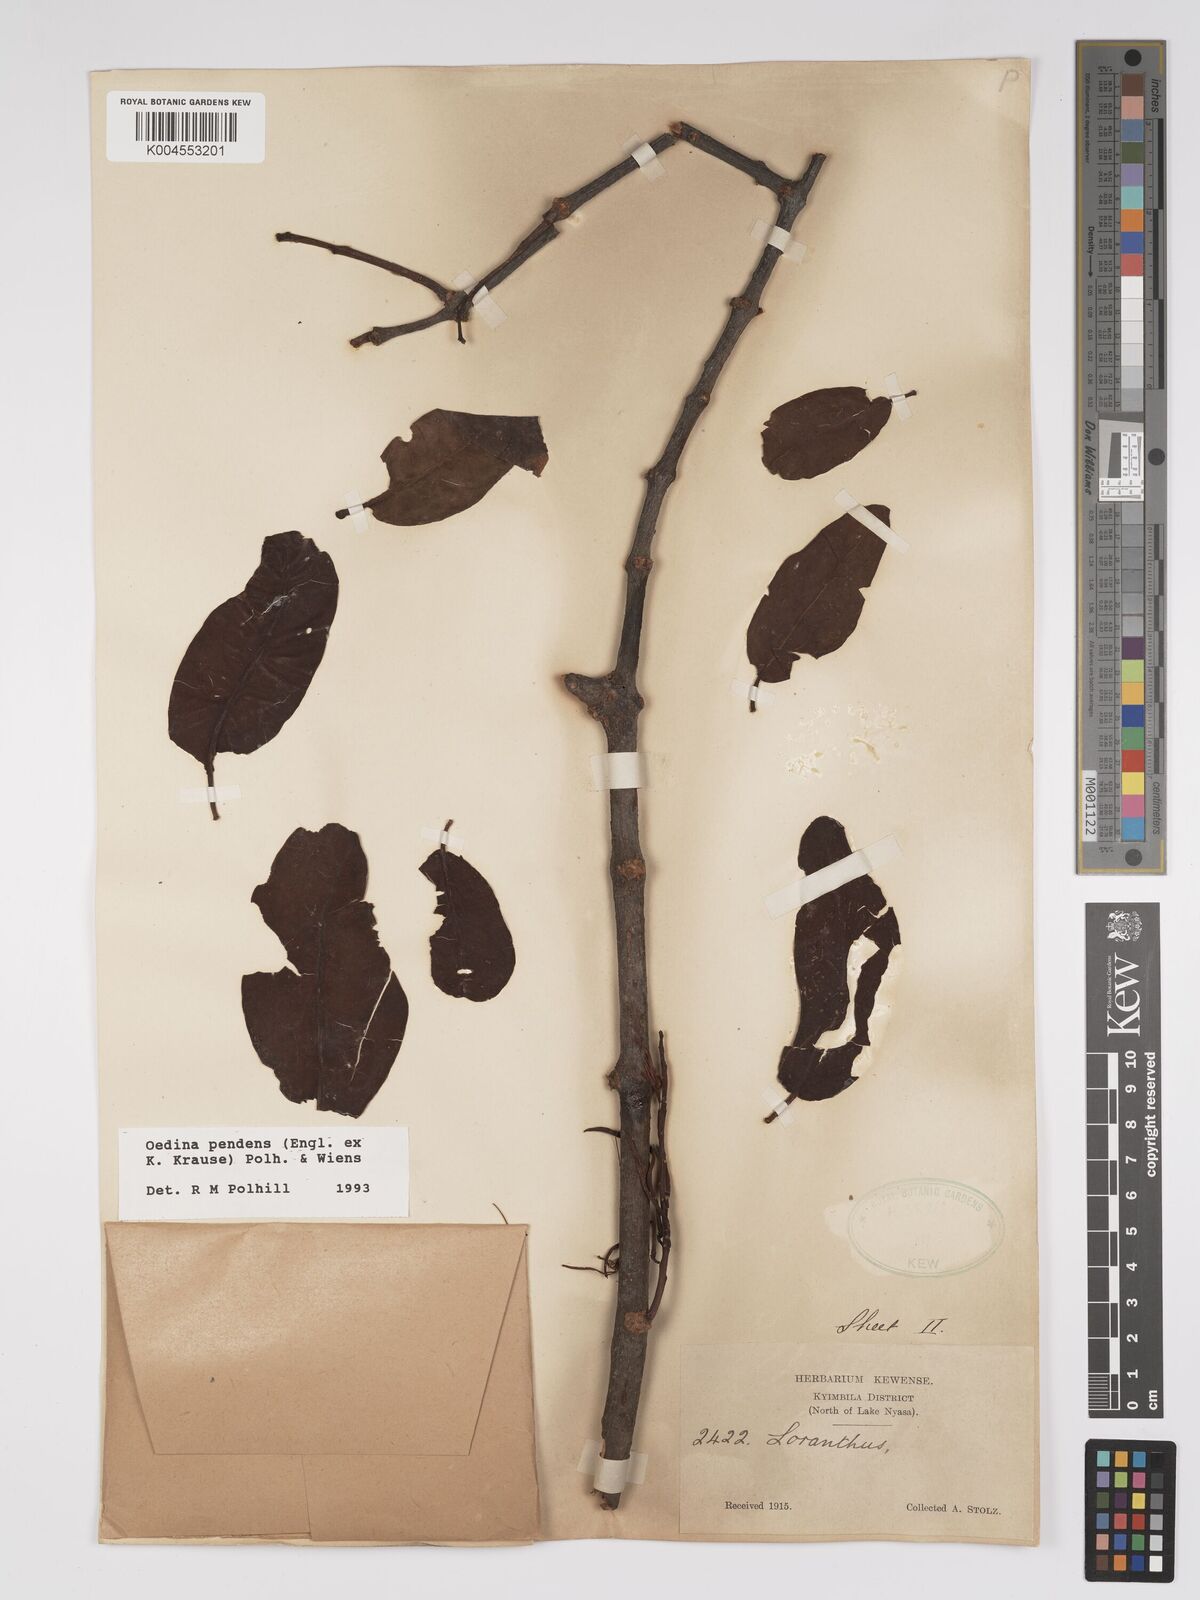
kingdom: Plantae
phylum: Tracheophyta
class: Magnoliopsida
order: Santalales
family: Loranthaceae
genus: Oedina
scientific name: Oedina pendens
